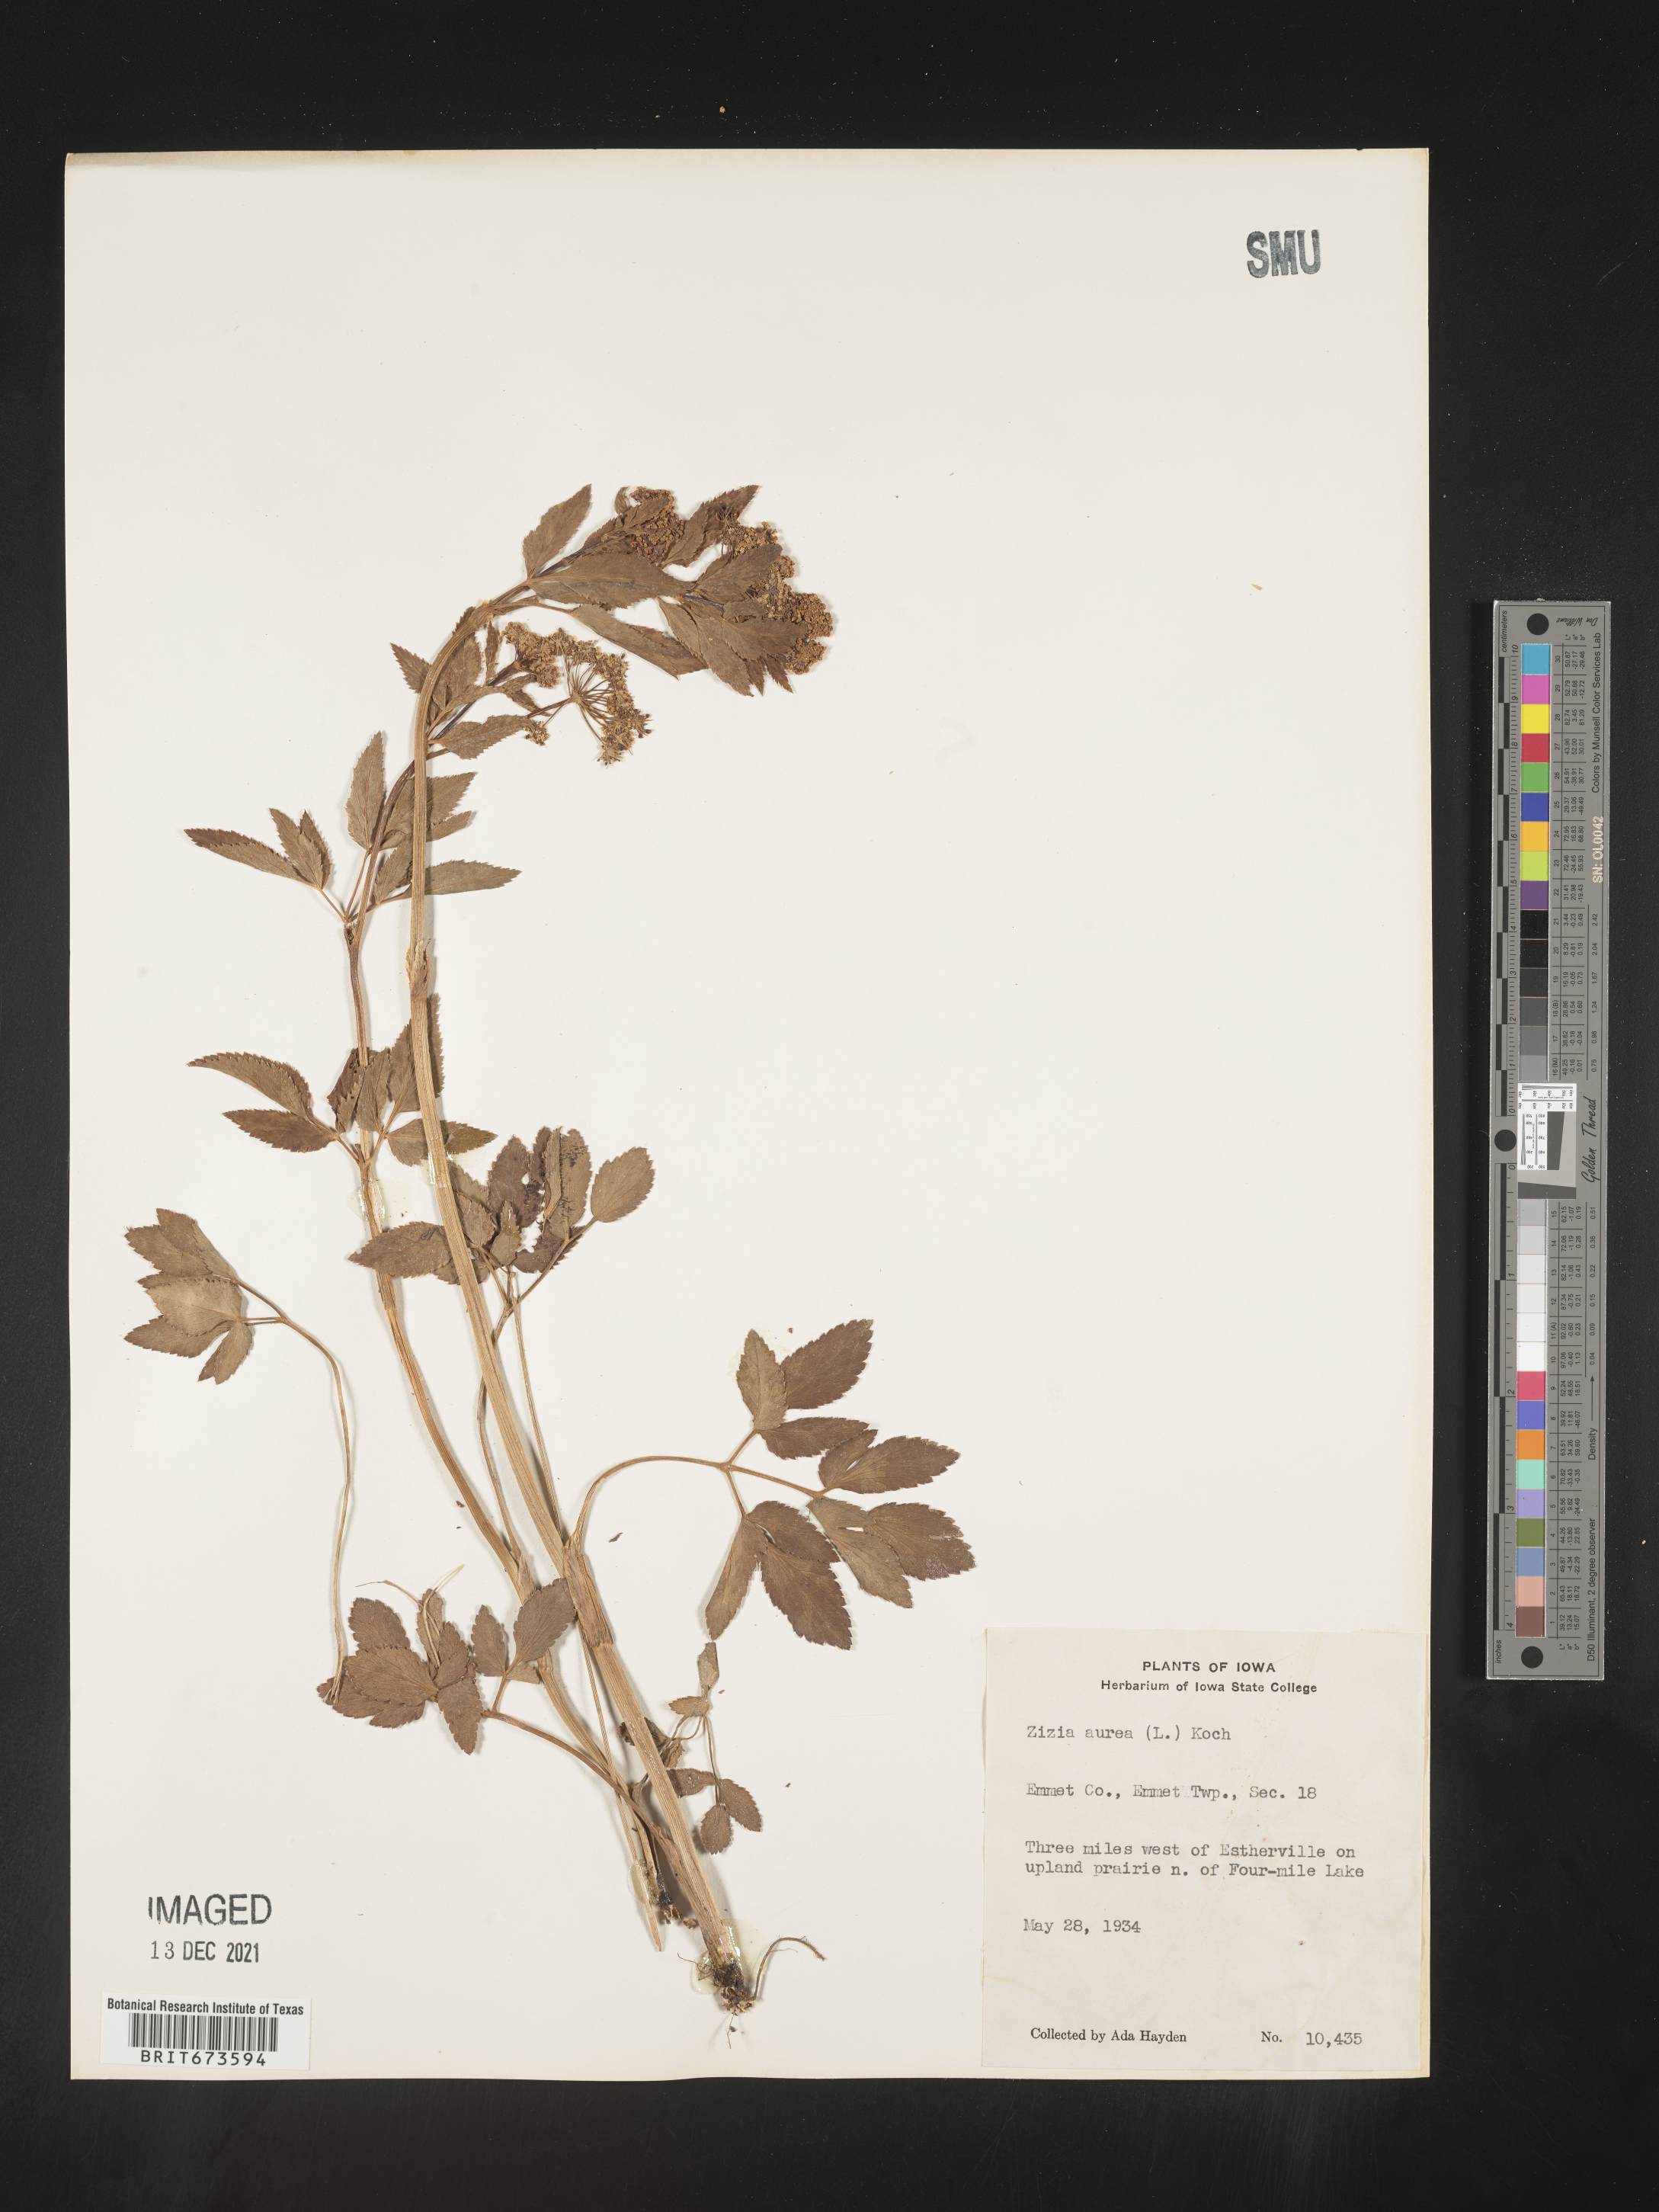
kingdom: Plantae
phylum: Tracheophyta
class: Magnoliopsida
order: Apiales
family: Apiaceae
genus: Zizia
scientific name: Zizia aurea
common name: Golden alexanders
